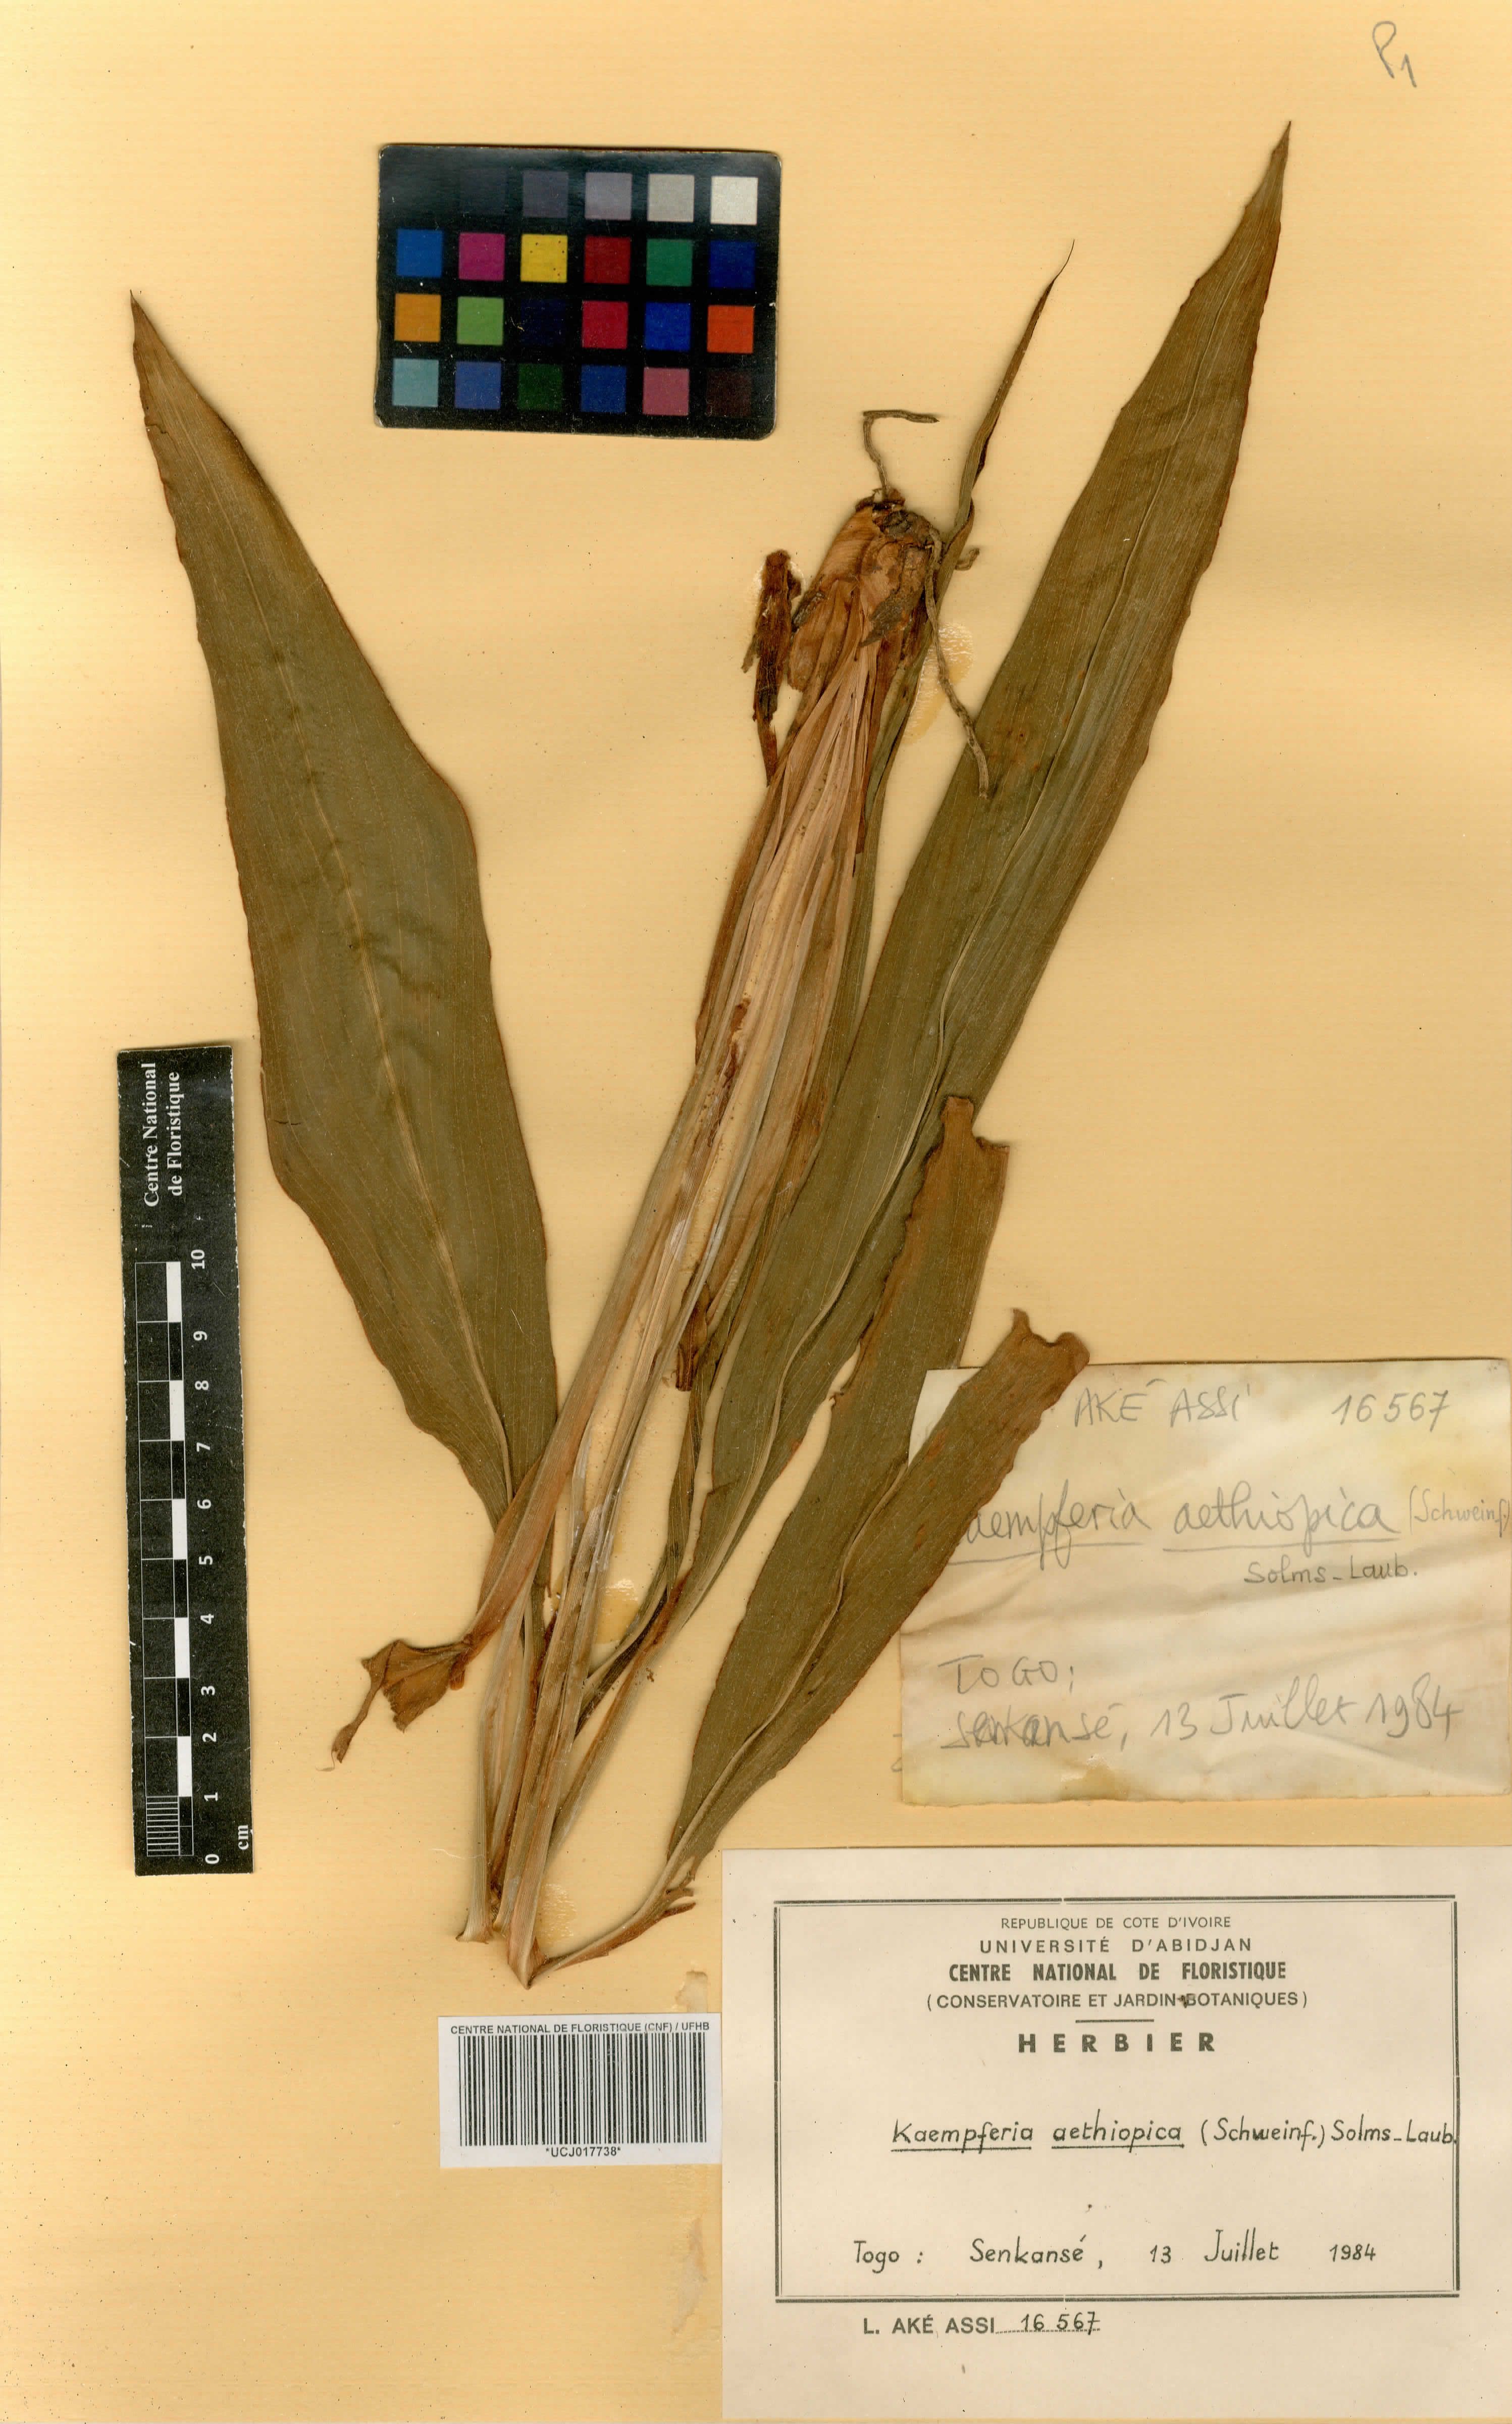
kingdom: Plantae
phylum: Tracheophyta
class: Liliopsida
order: Zingiberales
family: Zingiberaceae
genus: Kaempferia
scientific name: Kaempferia aethiopica
